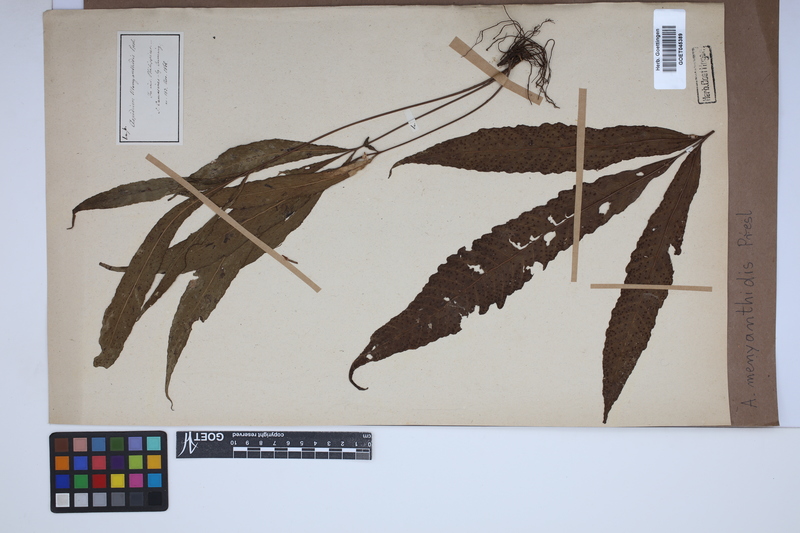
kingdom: Plantae
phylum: Tracheophyta
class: Polypodiopsida
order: Polypodiales
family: Tectariaceae
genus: Polydictyum
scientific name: Polydictyum menyanthidis
